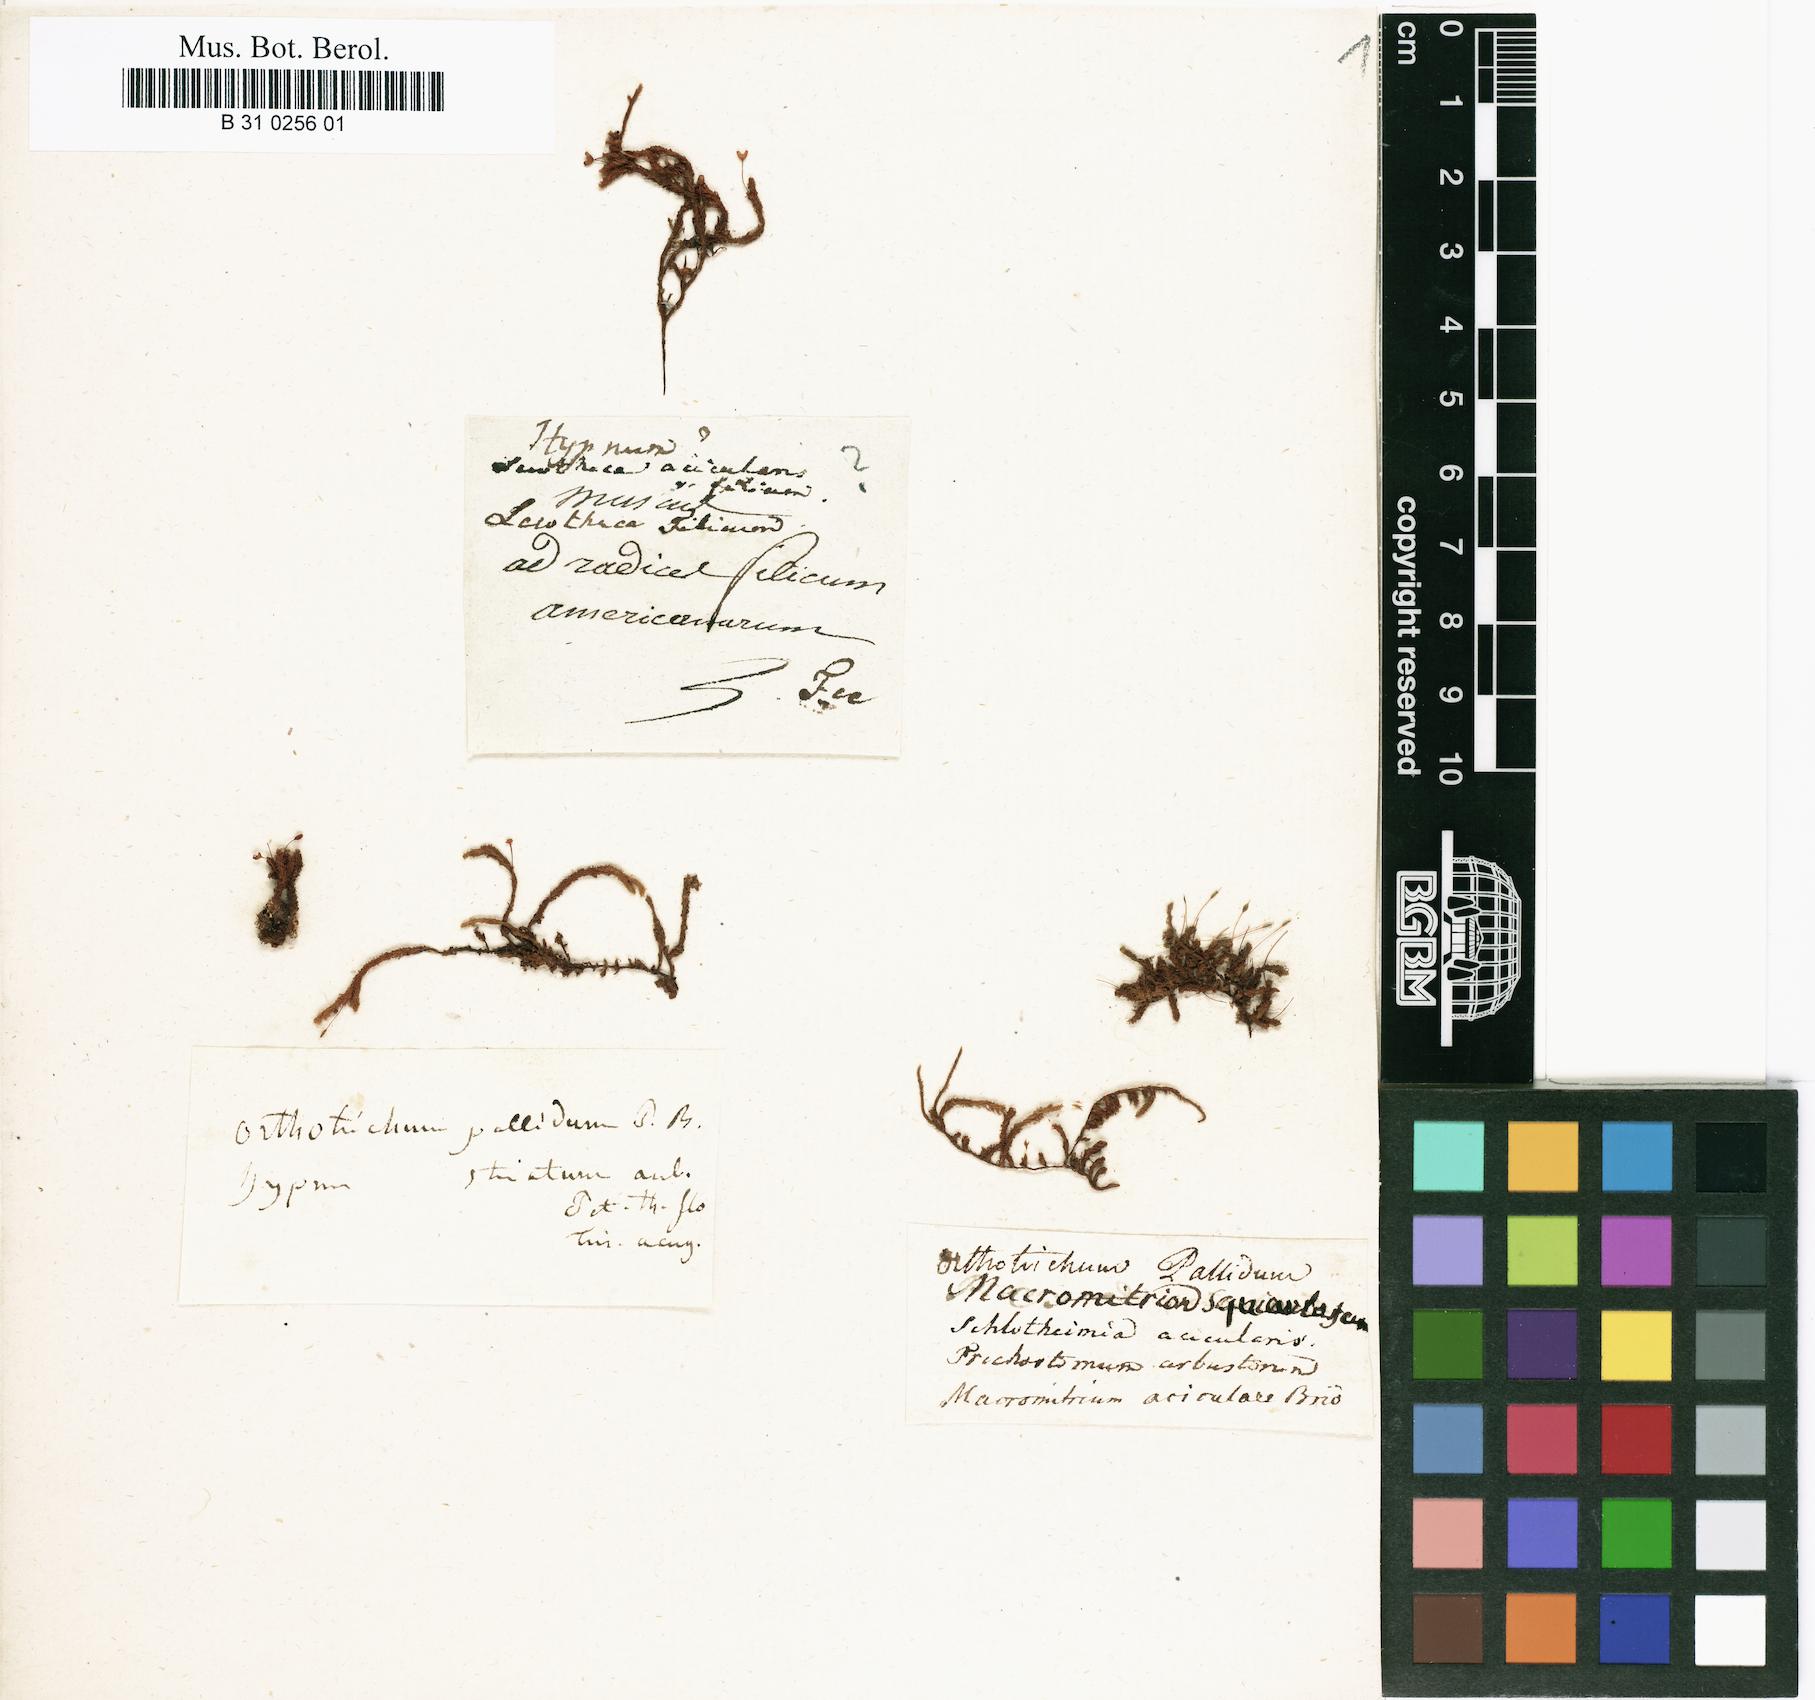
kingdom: Plantae
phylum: Bryophyta
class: Bryopsida
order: Orthotrichales
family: Orthotrichaceae
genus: Macromitrium
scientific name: Macromitrium pallidum
